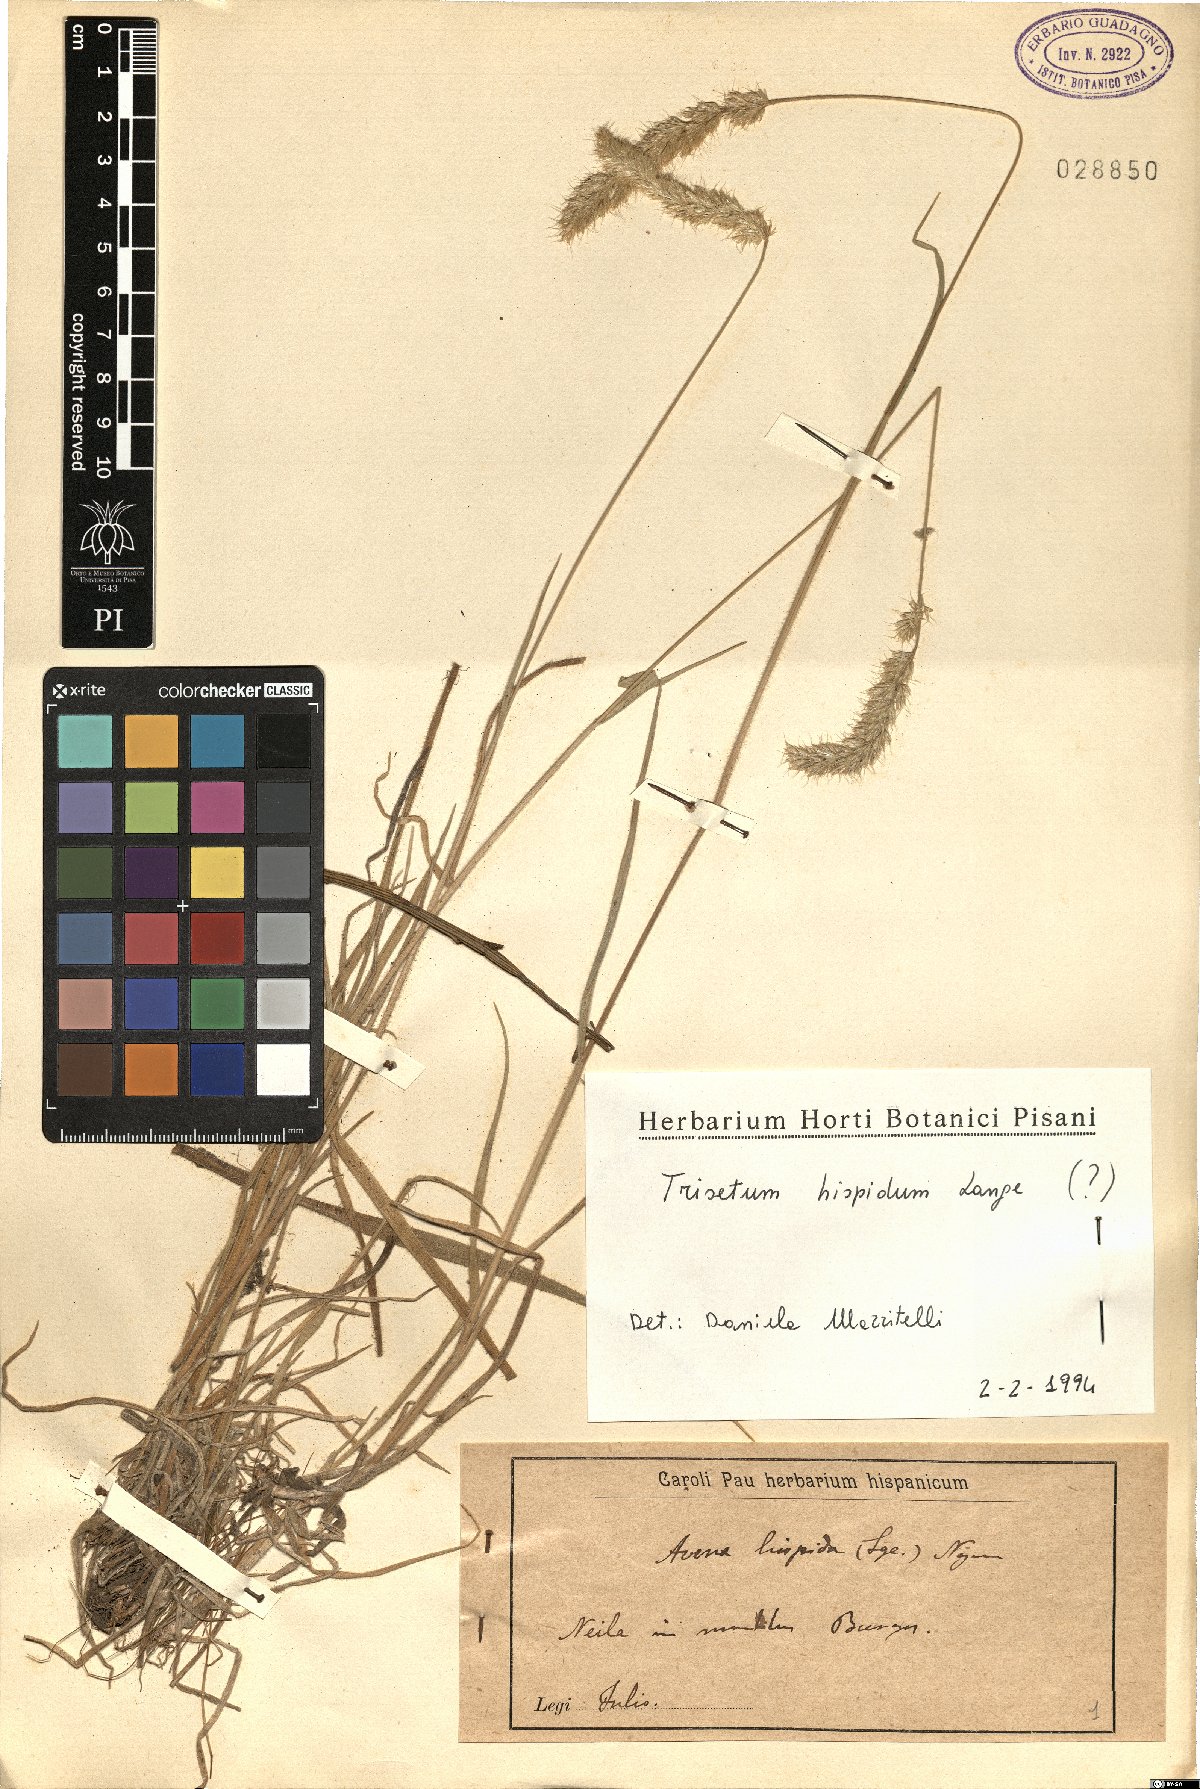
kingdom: Plantae
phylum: Tracheophyta
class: Liliopsida
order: Poales
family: Poaceae
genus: Koeleria
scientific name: Koeleria hispanica
